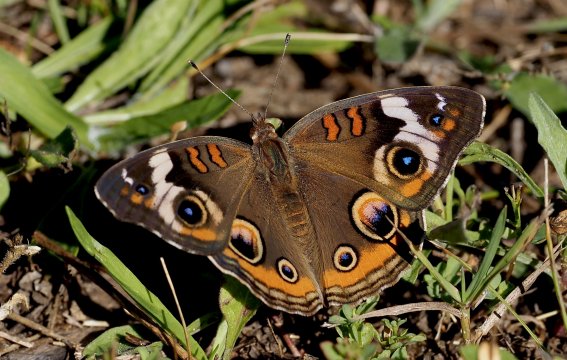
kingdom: Animalia
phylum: Arthropoda
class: Insecta
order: Lepidoptera
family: Nymphalidae
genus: Junonia
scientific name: Junonia coenia
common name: Common Buckeye
